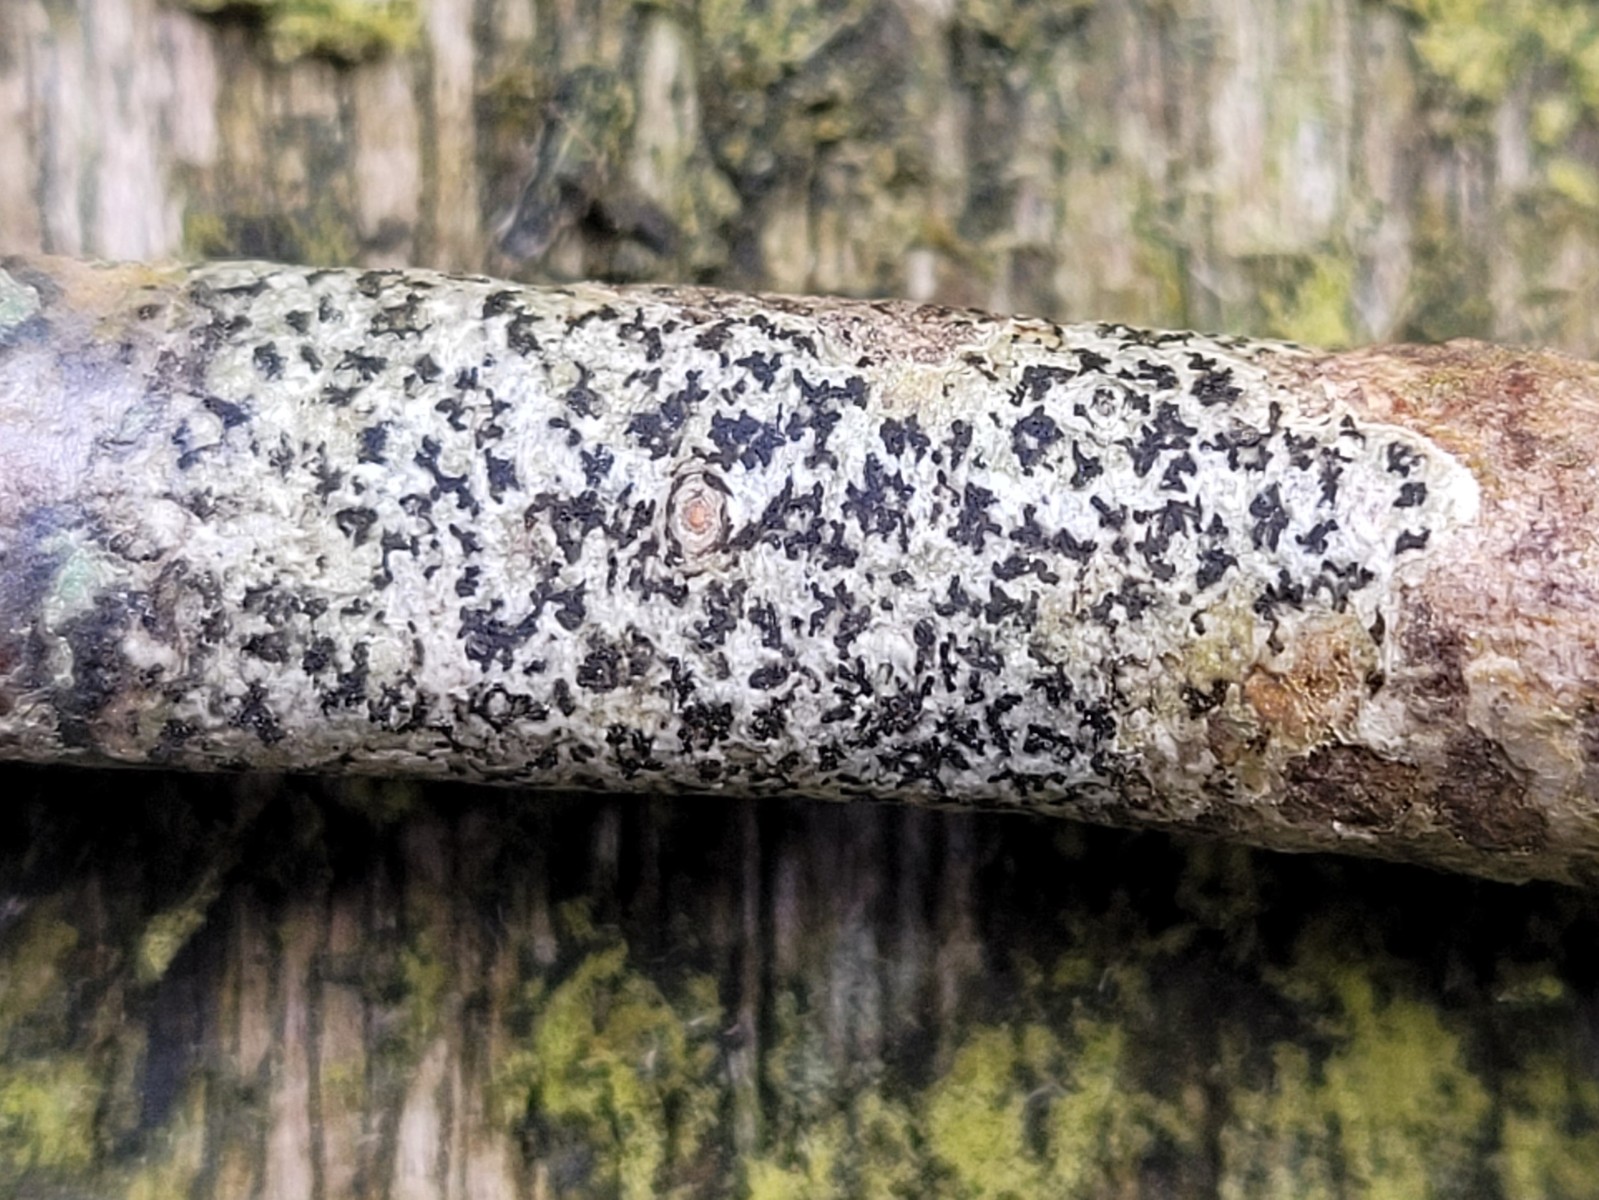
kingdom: Fungi
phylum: Ascomycota
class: Arthoniomycetes
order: Arthoniales
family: Arthoniaceae
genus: Arthonia
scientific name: Arthonia radiata
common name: stjerne-pletlav
